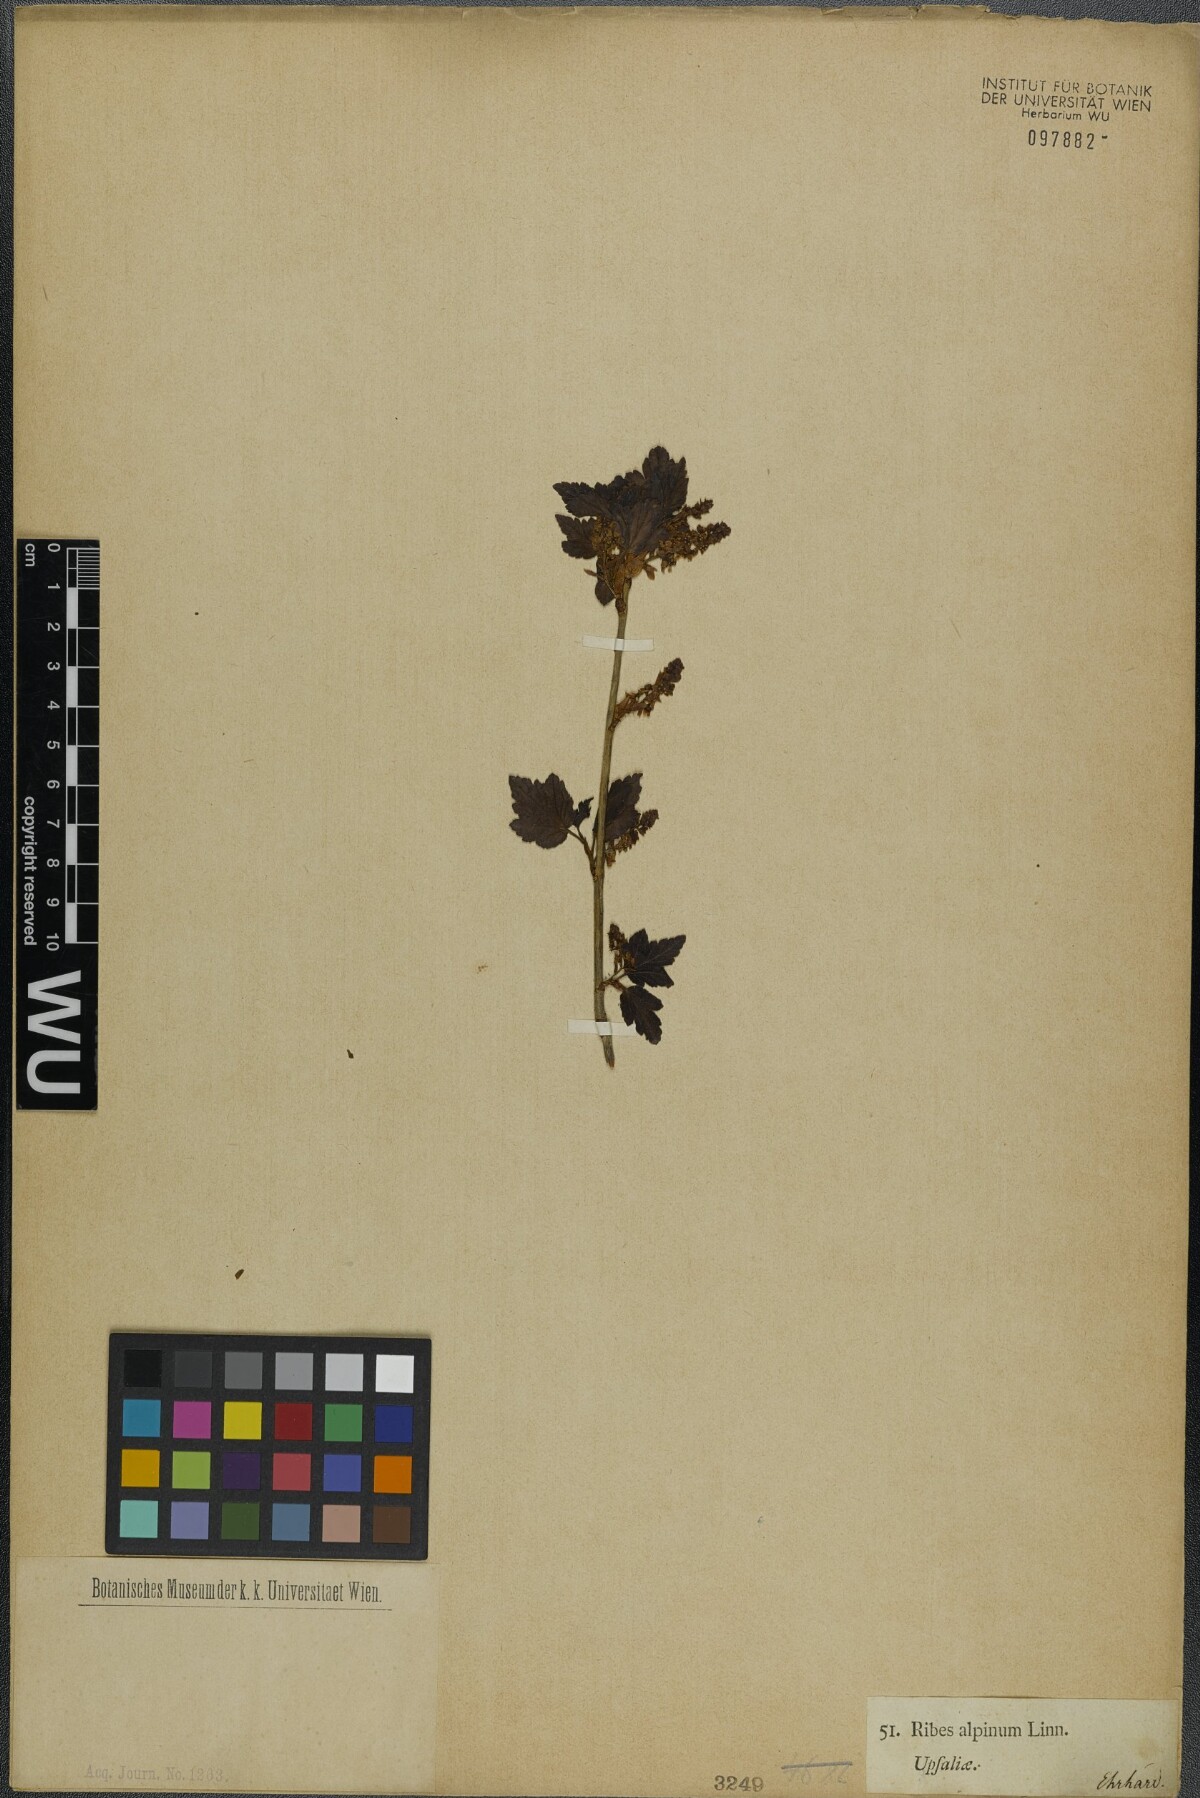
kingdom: Plantae
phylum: Tracheophyta
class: Magnoliopsida
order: Saxifragales
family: Grossulariaceae
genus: Ribes
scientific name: Ribes alpinum
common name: Alpine currant
